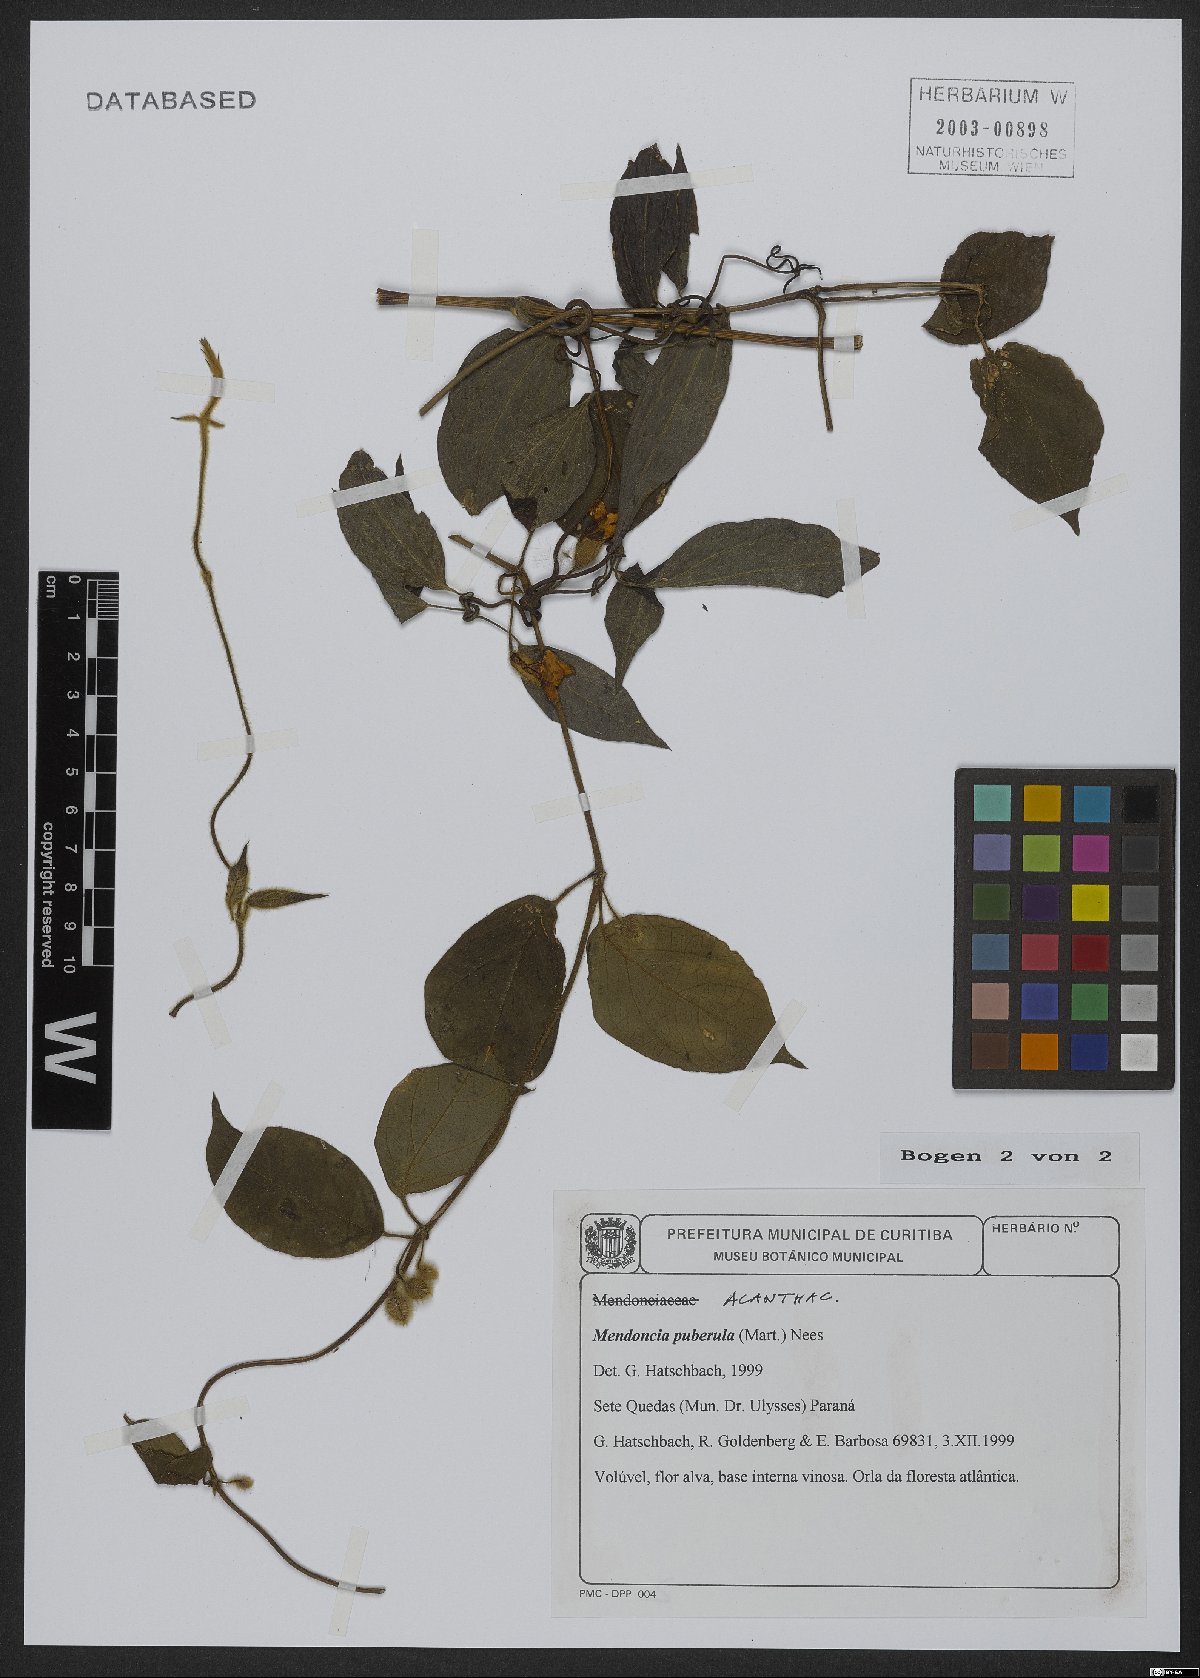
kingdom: Plantae
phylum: Tracheophyta
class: Magnoliopsida
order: Lamiales
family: Acanthaceae
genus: Mendoncia
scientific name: Mendoncia puberula
